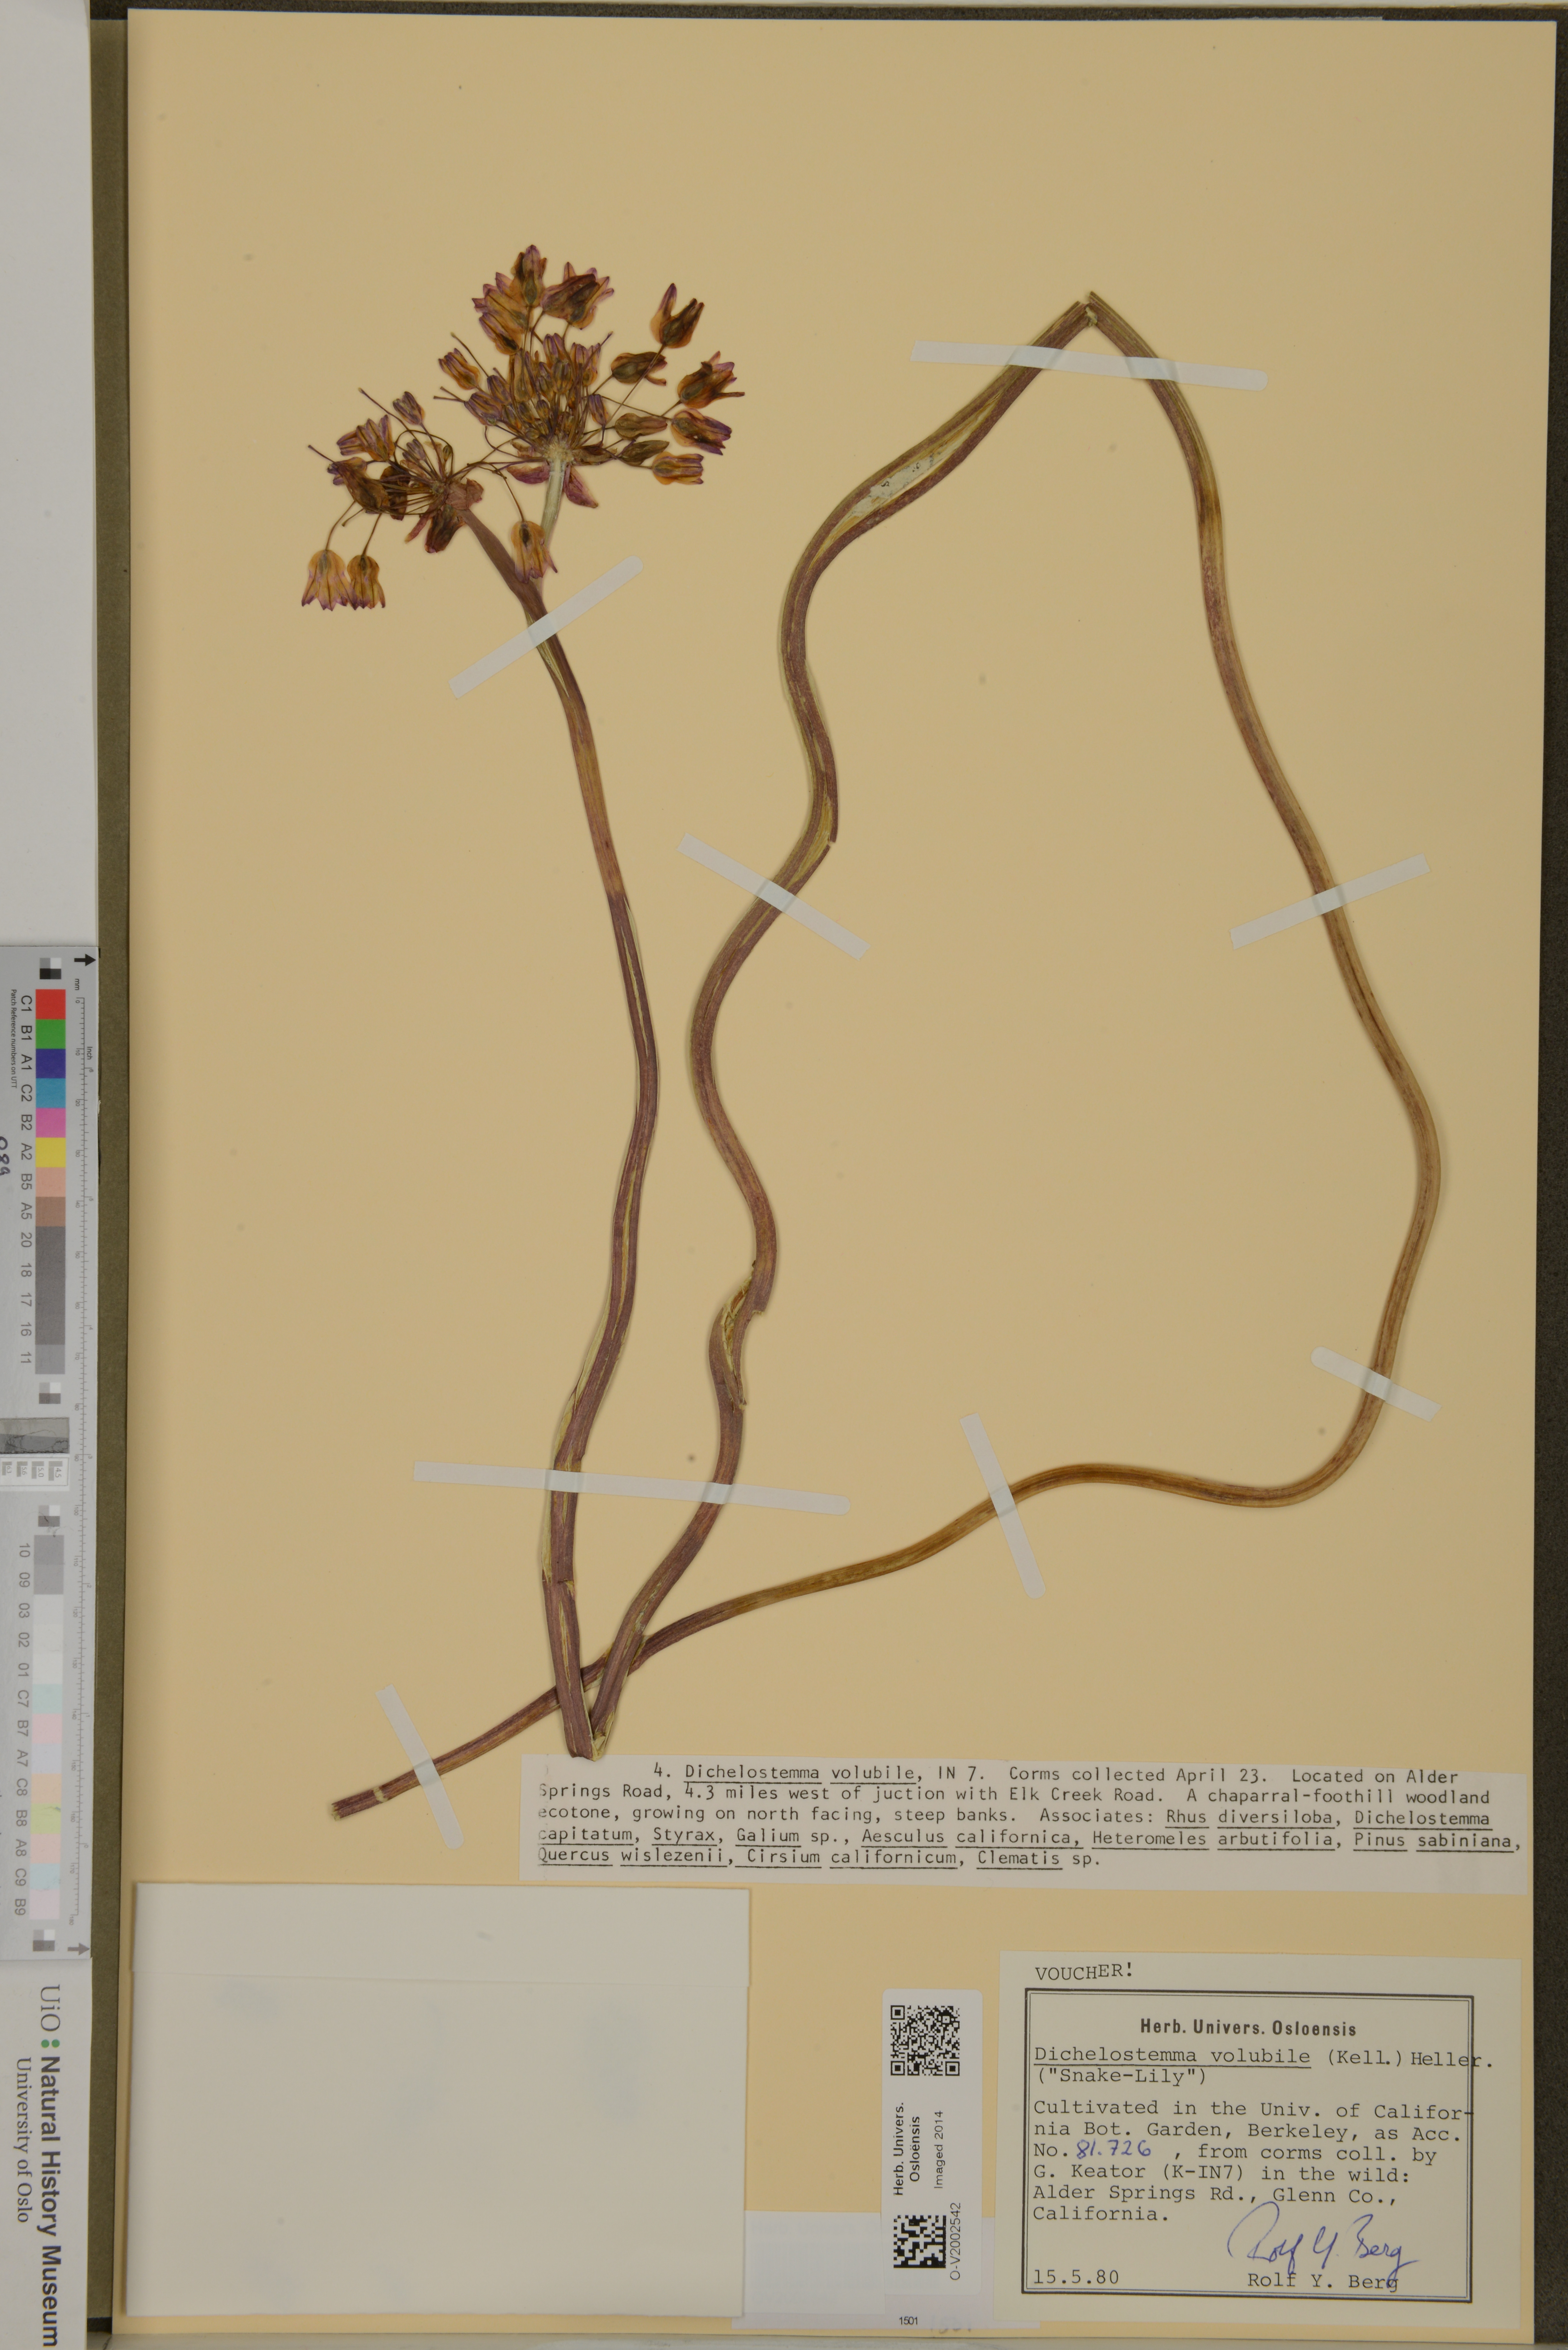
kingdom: Plantae
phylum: Tracheophyta
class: Liliopsida
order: Asparagales
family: Asparagaceae
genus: Dichelostemma
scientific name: Dichelostemma volubile
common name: Trining brodiaea
